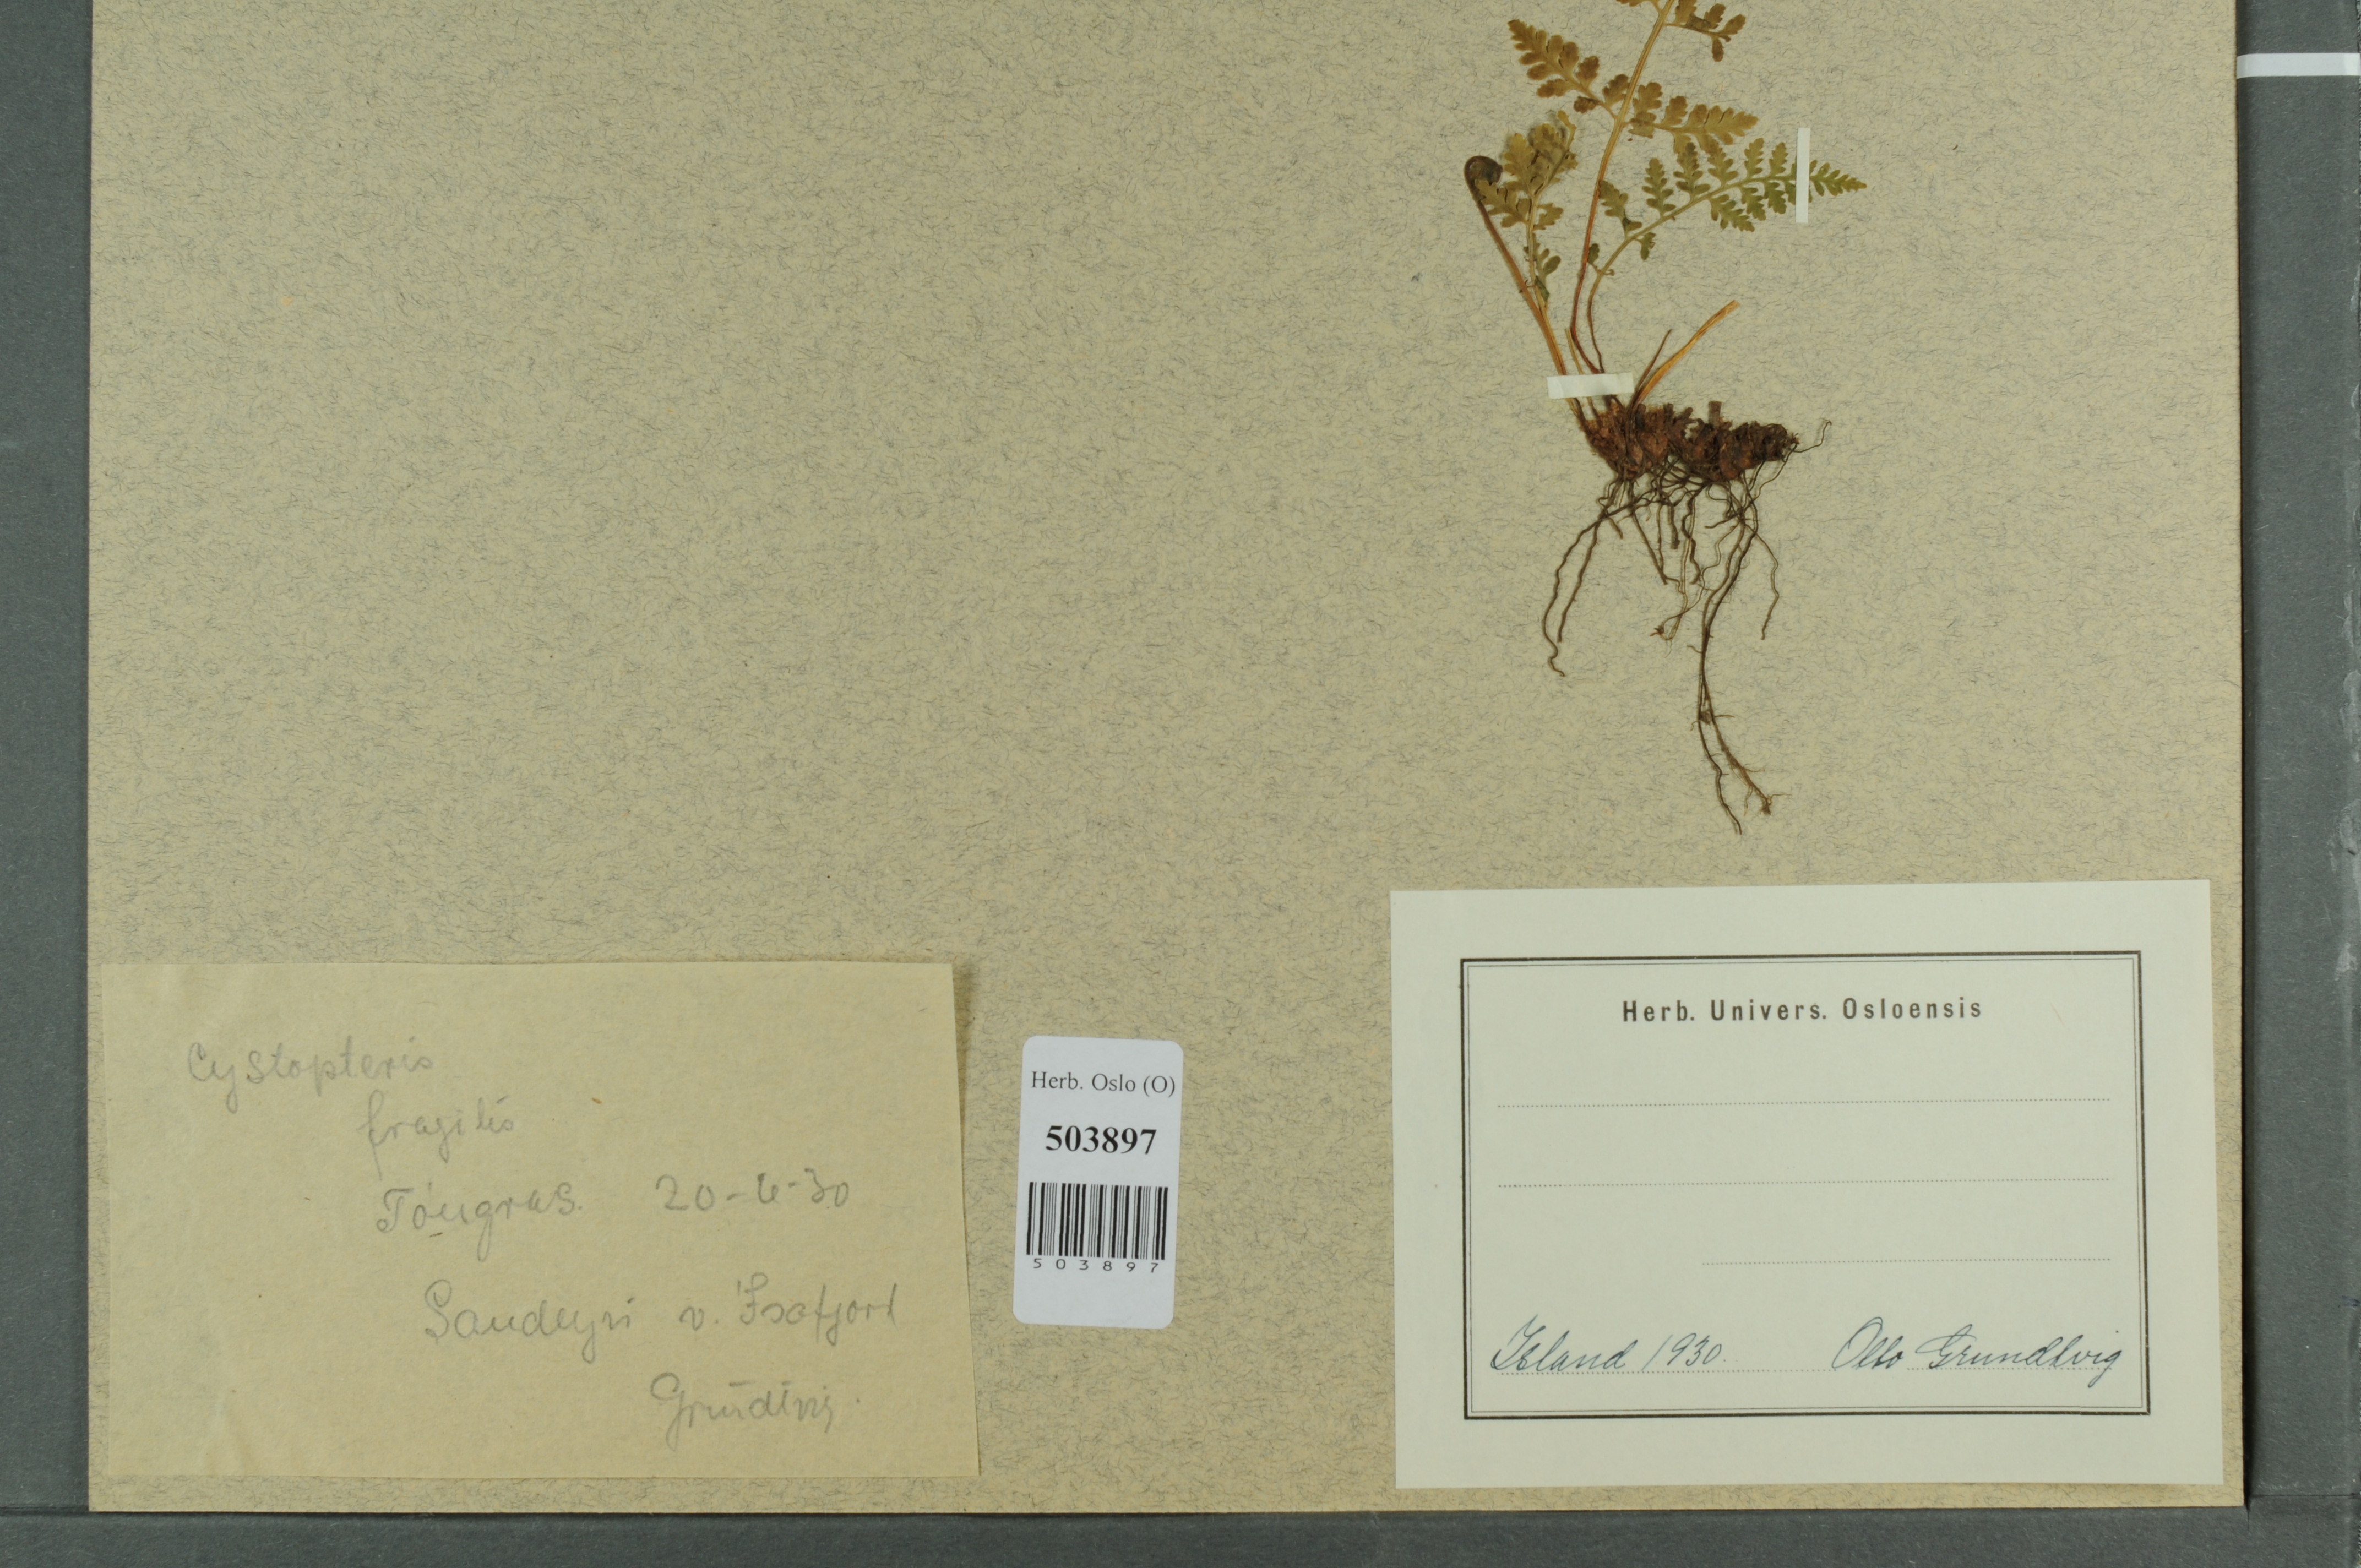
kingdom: Plantae
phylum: Tracheophyta
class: Polypodiopsida
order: Polypodiales
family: Cystopteridaceae
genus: Cystopteris
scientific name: Cystopteris fragilis
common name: Brittle bladder fern
